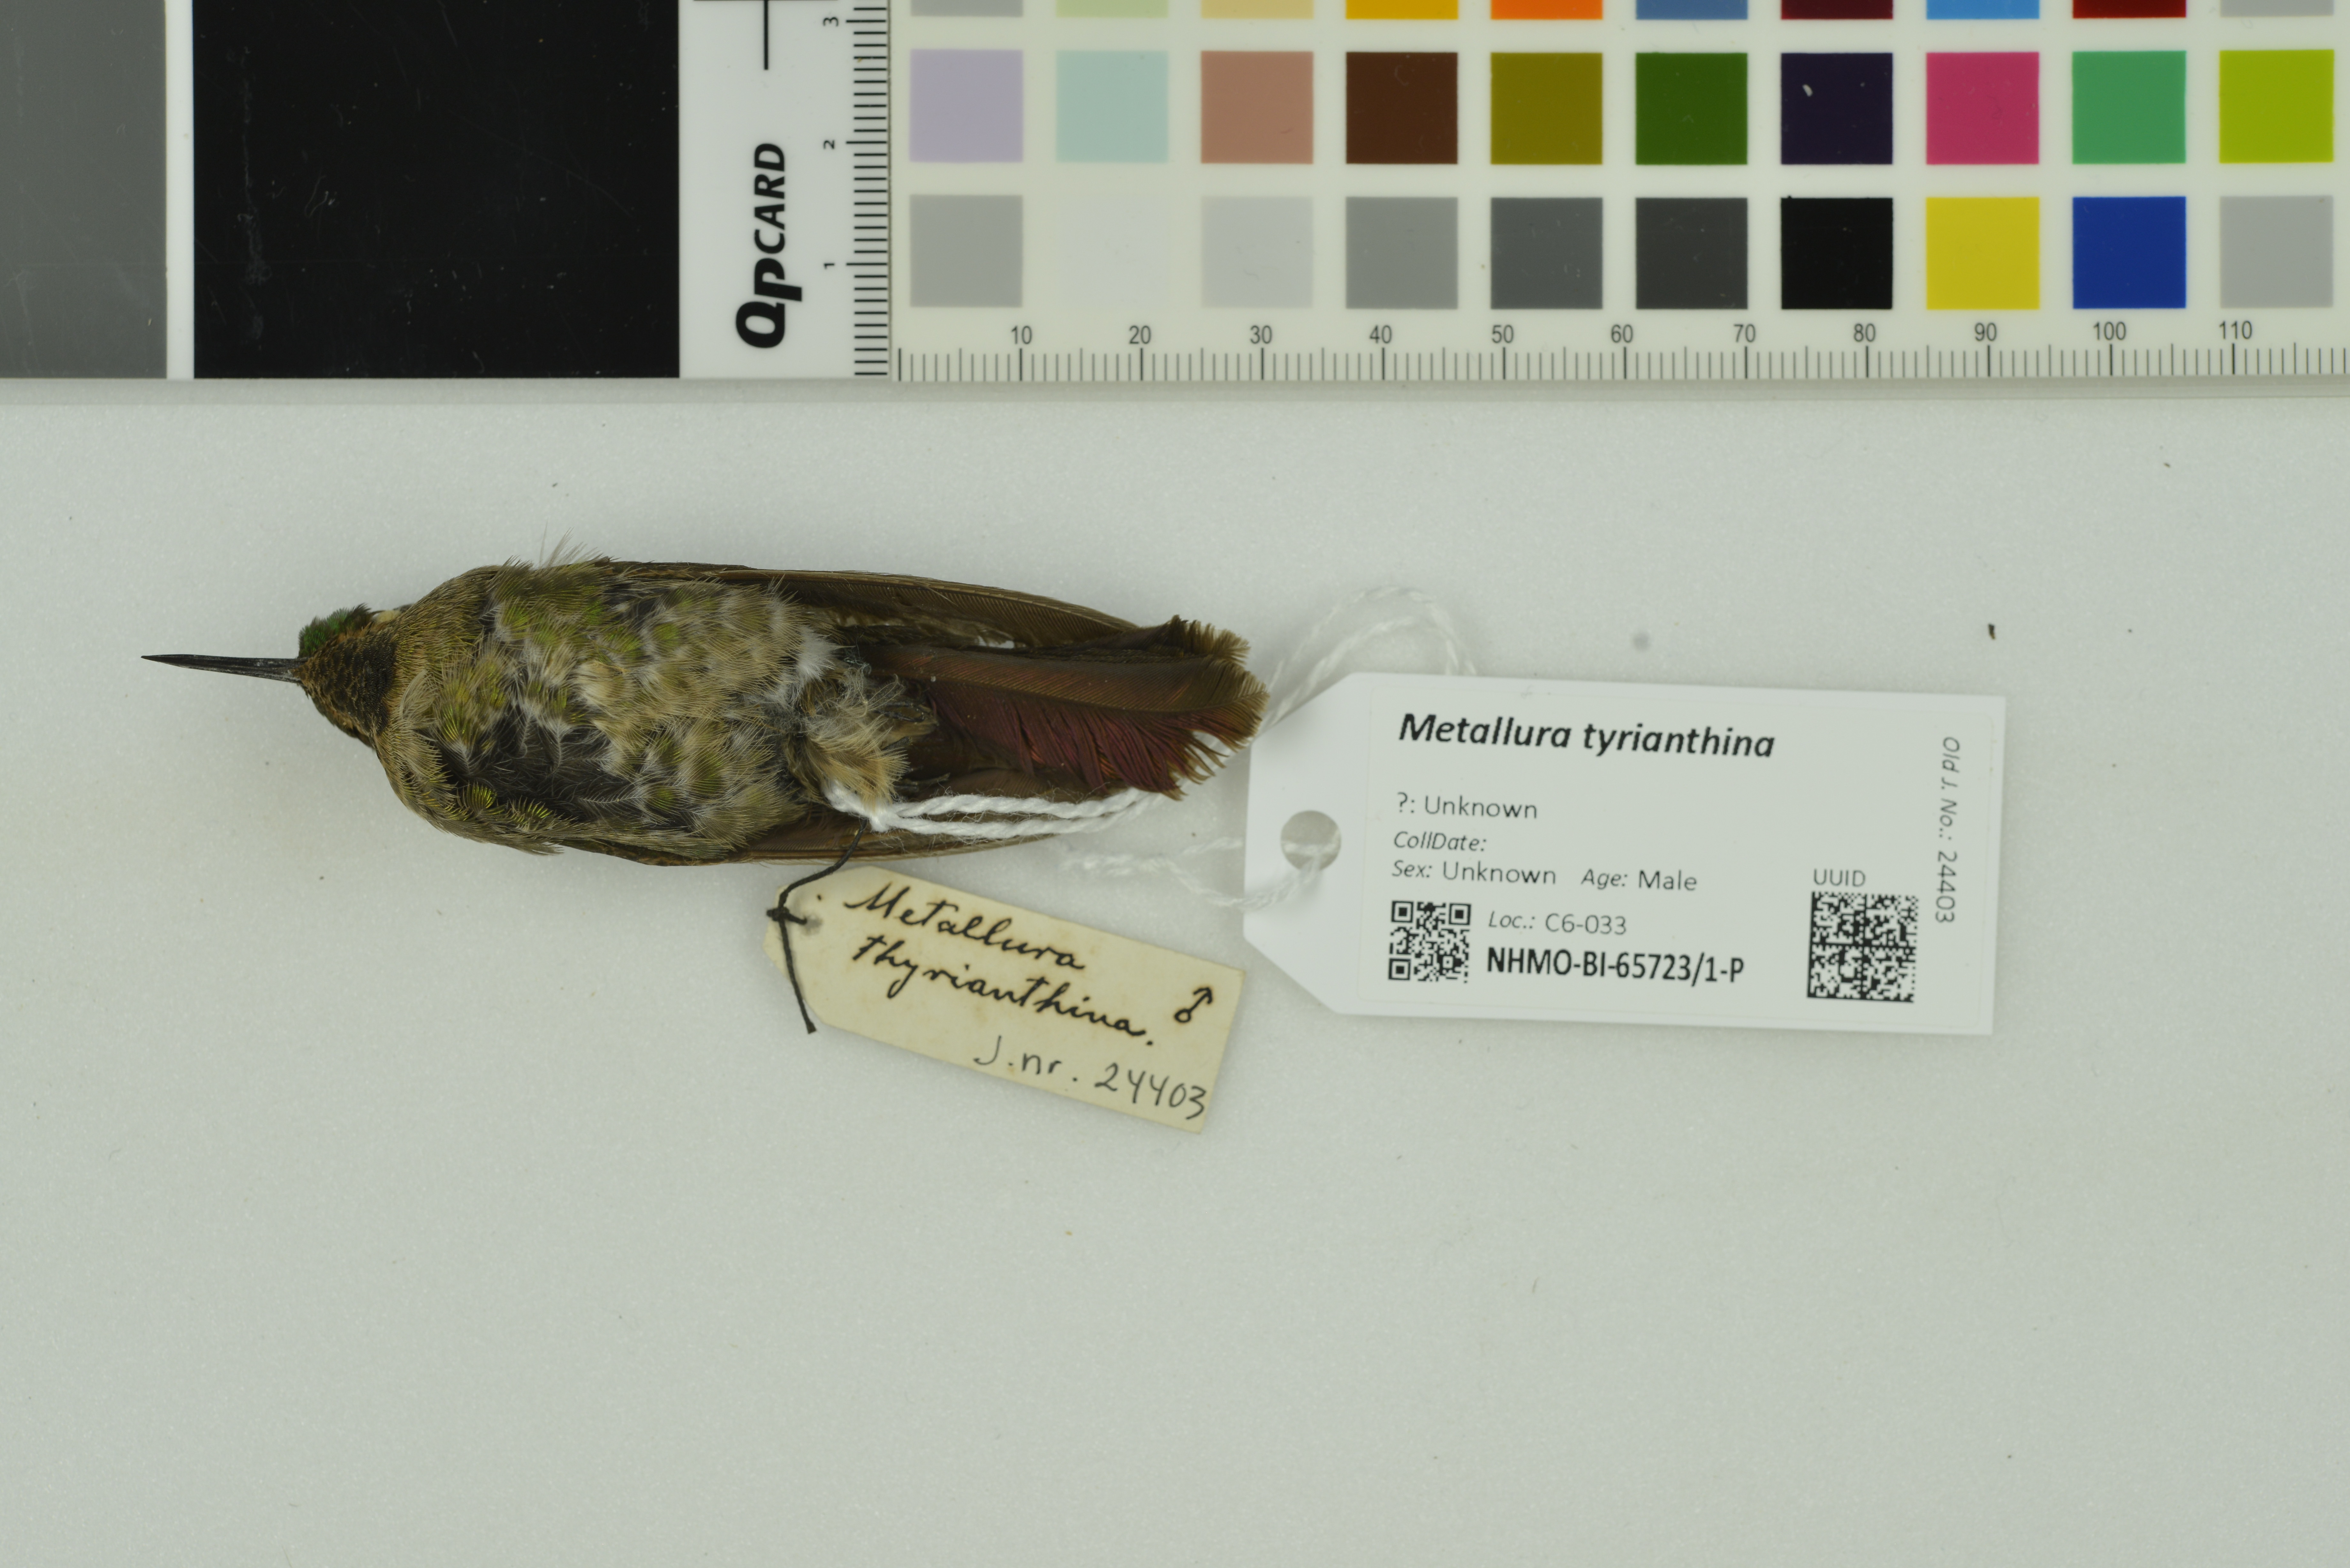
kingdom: Animalia
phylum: Chordata
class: Aves
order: Apodiformes
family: Trochilidae
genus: Metallura
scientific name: Metallura tyrianthina
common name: Tyrian metaltail
